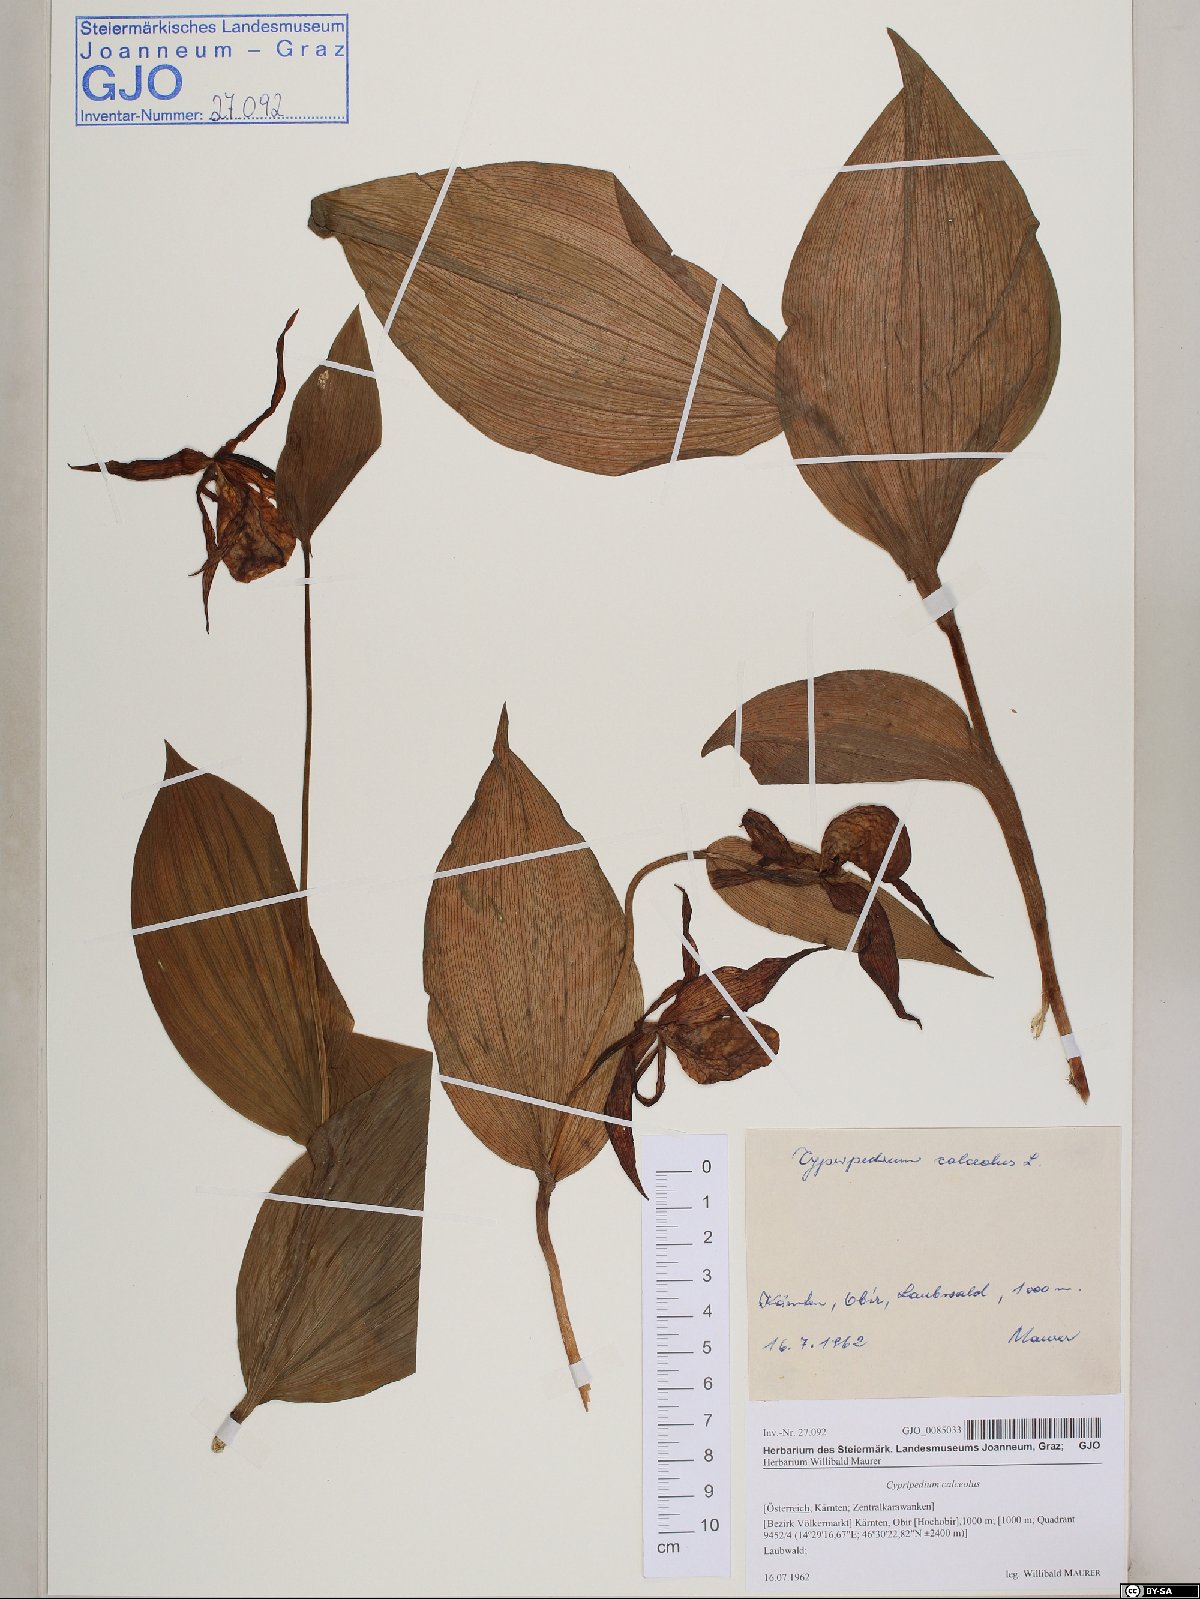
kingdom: Plantae
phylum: Tracheophyta
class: Liliopsida
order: Asparagales
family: Orchidaceae
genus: Cypripedium
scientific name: Cypripedium calceolus
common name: Lady's-slipper
